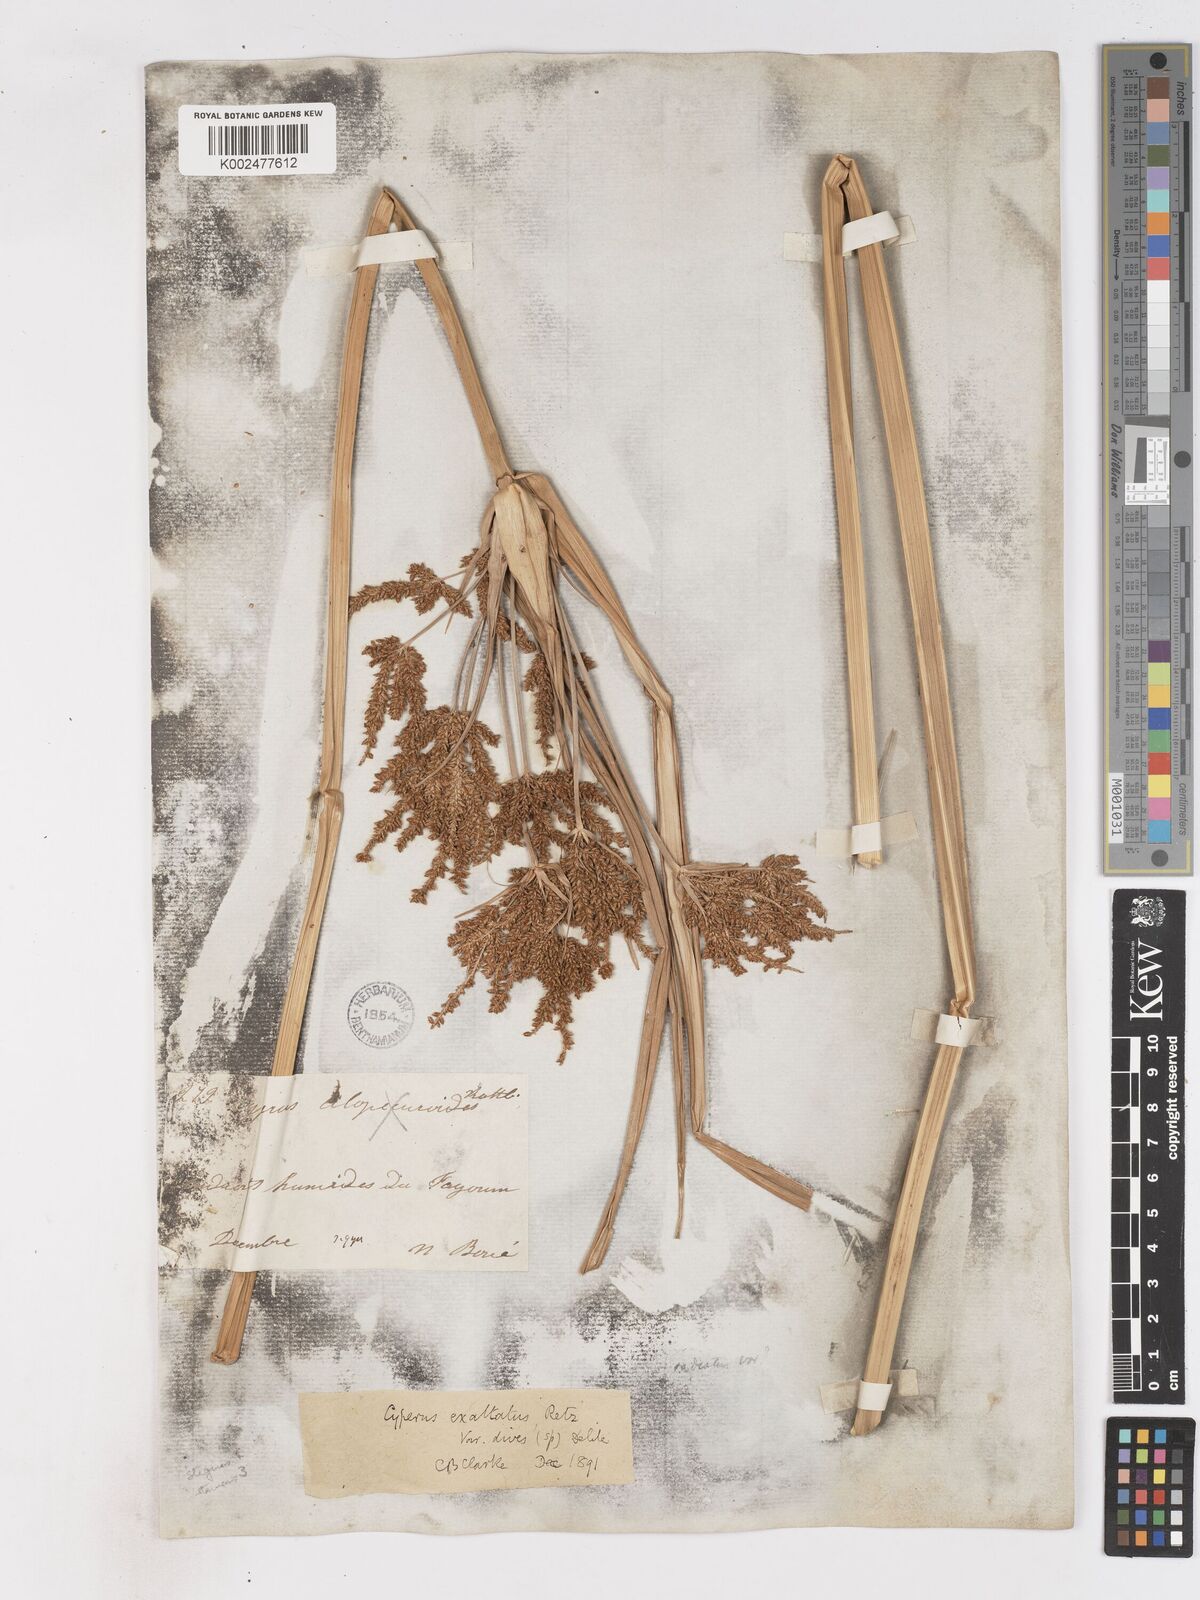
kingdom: Plantae
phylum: Tracheophyta
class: Liliopsida
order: Poales
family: Cyperaceae
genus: Cyperus
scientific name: Cyperus dives
